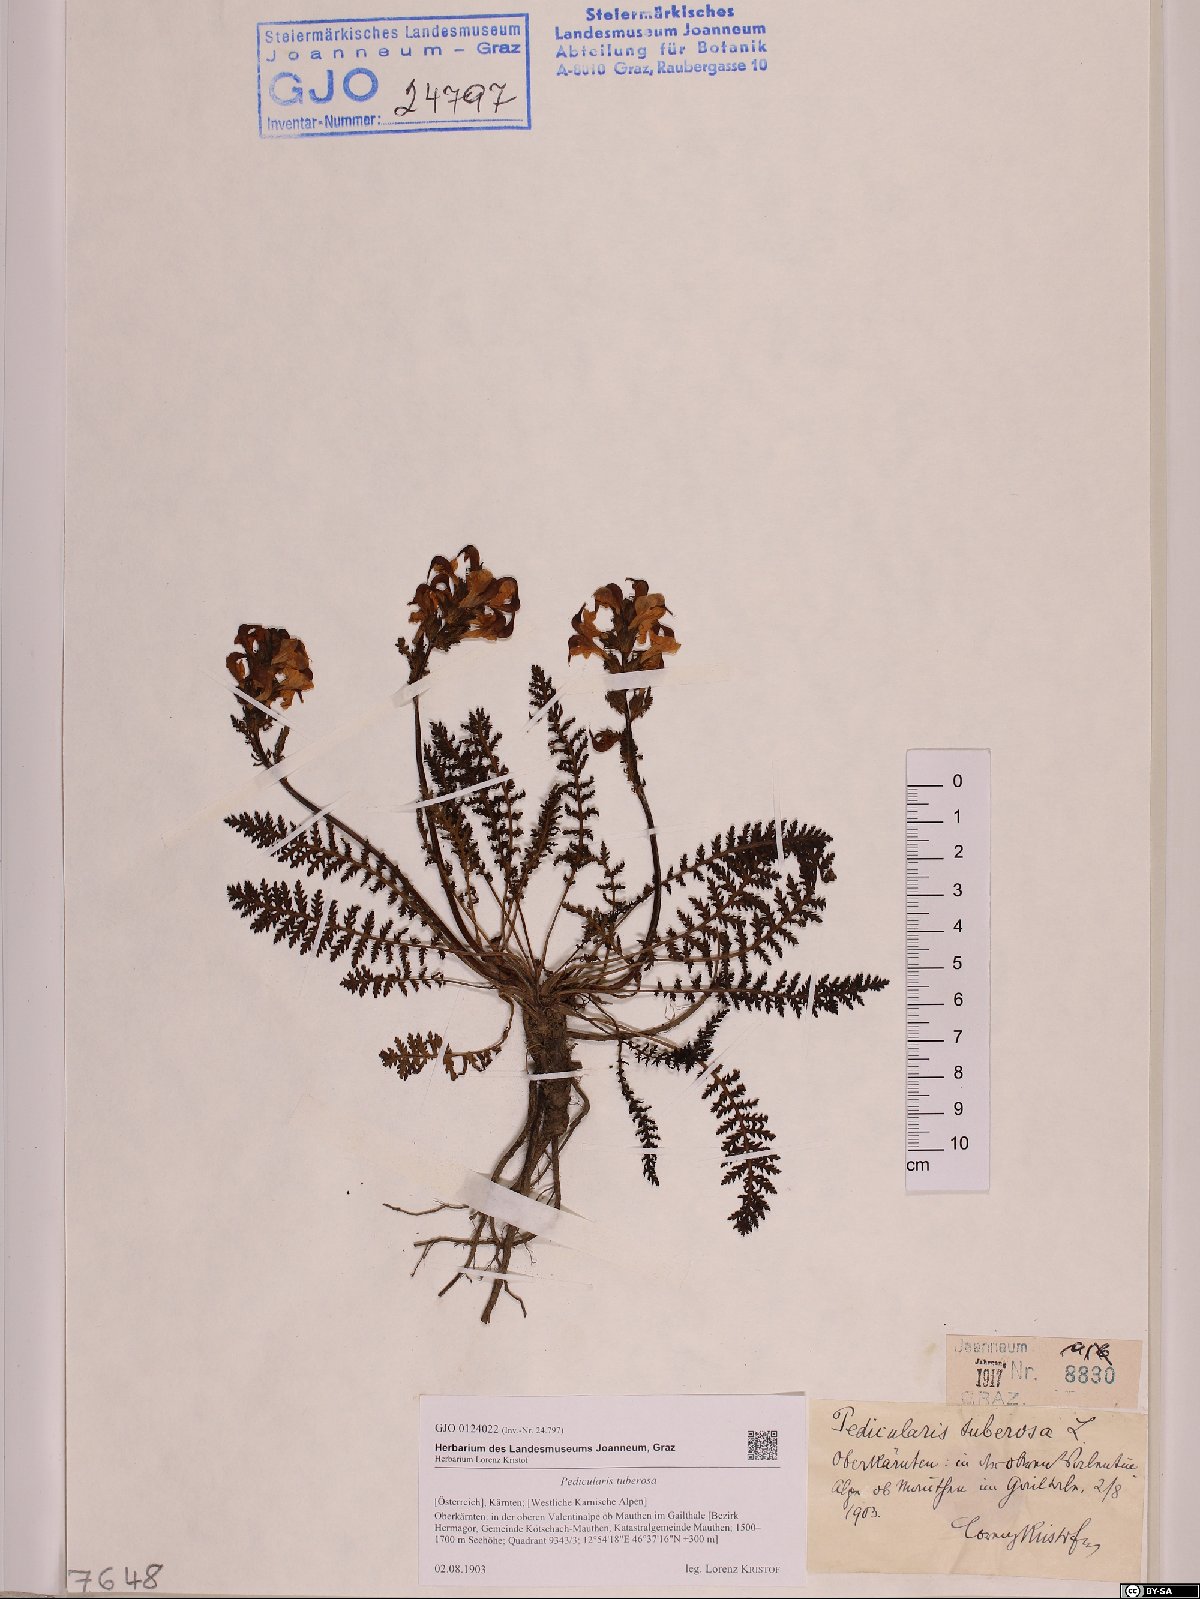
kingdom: Plantae
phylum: Tracheophyta
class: Magnoliopsida
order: Lamiales
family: Orobanchaceae
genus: Pedicularis
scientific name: Pedicularis tuberosa
